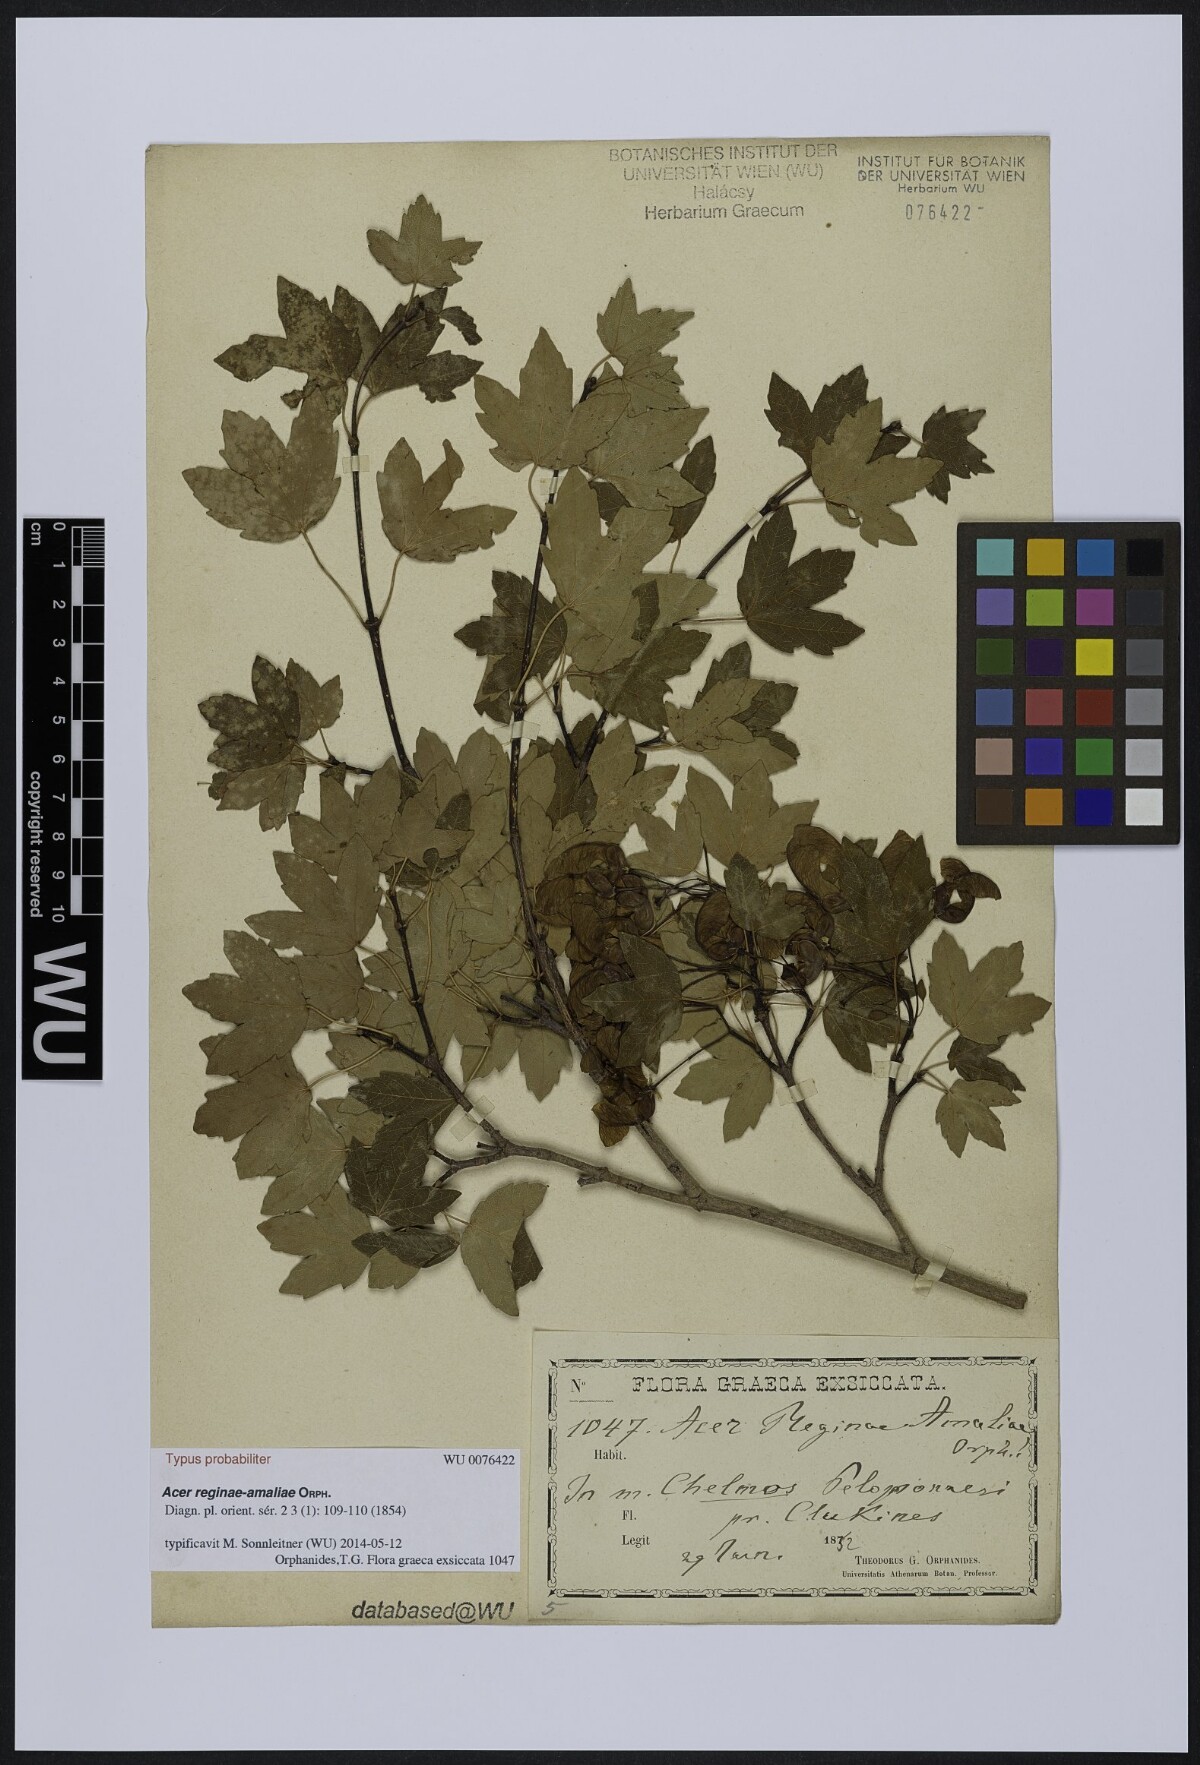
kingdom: Plantae
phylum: Tracheophyta
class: Magnoliopsida
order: Sapindales
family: Sapindaceae
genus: Acer
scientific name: Acer opalus
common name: Italian maple
